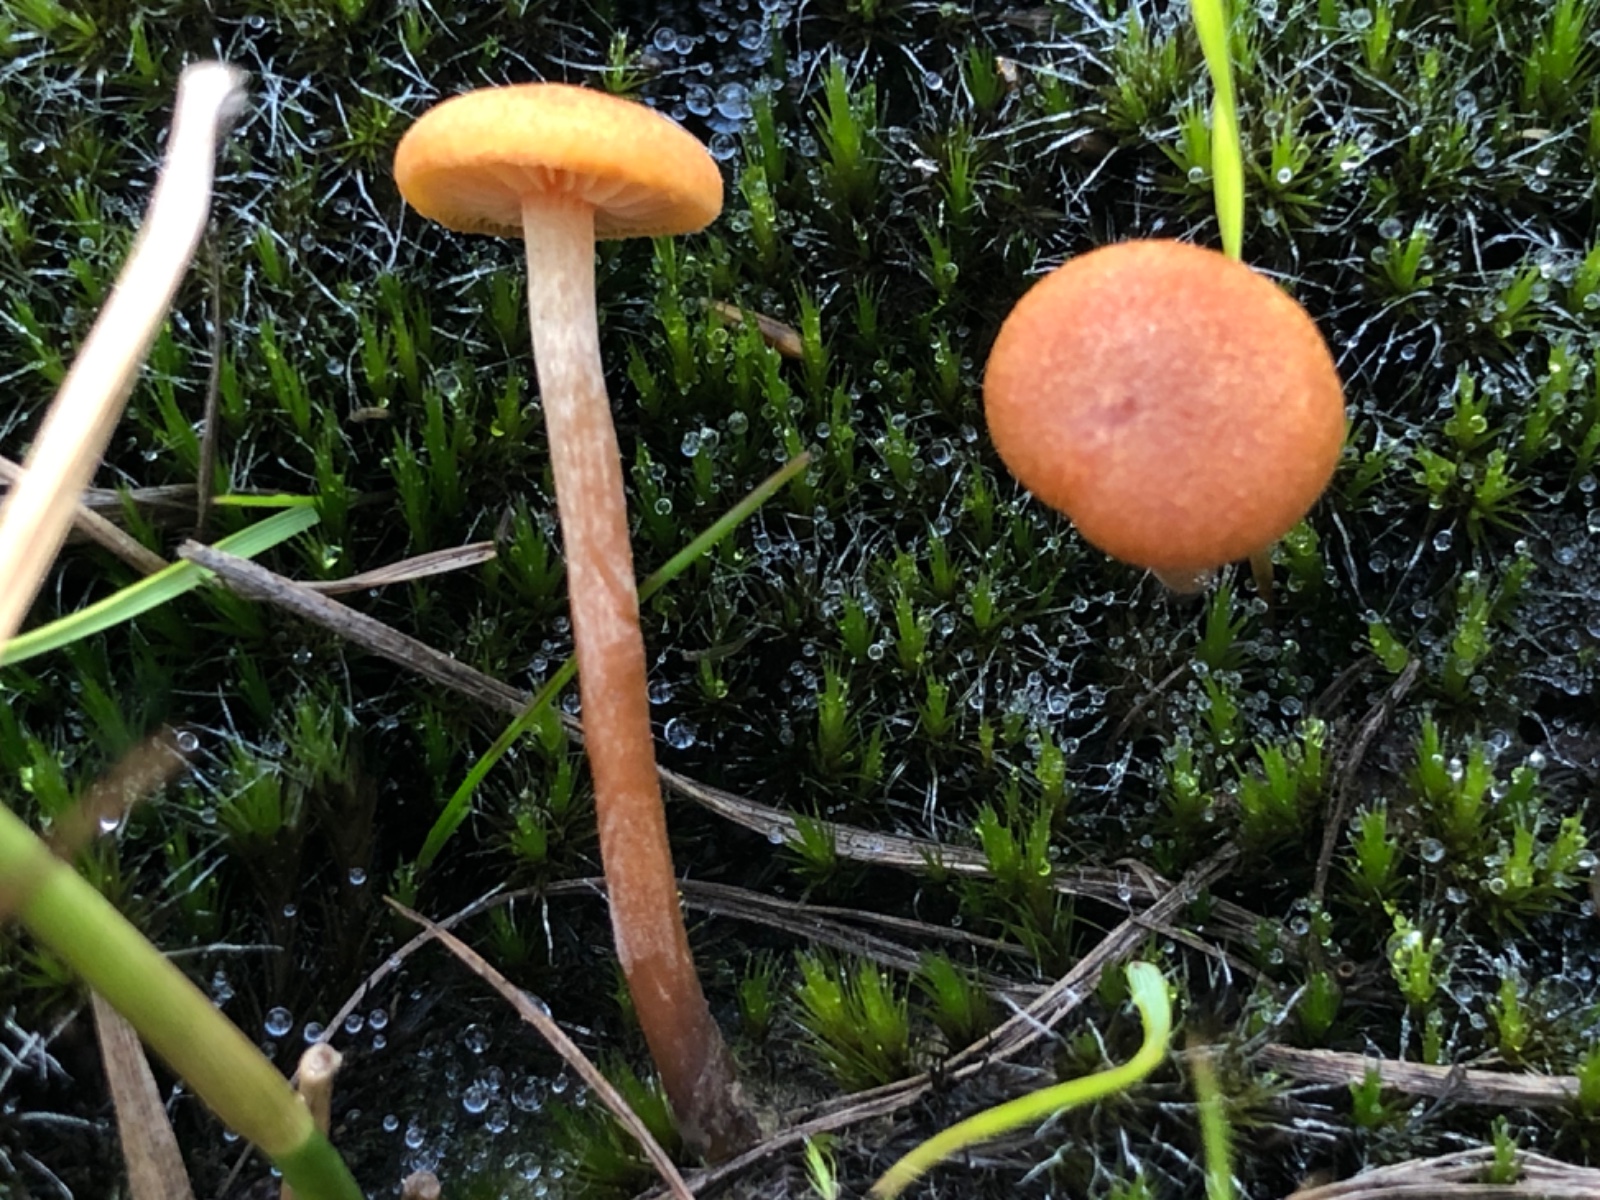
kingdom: Fungi
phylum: Basidiomycota
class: Agaricomycetes
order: Agaricales
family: Hymenogastraceae
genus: Gymnopilus
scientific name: Gymnopilus fulgens
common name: tørve-flammehat
